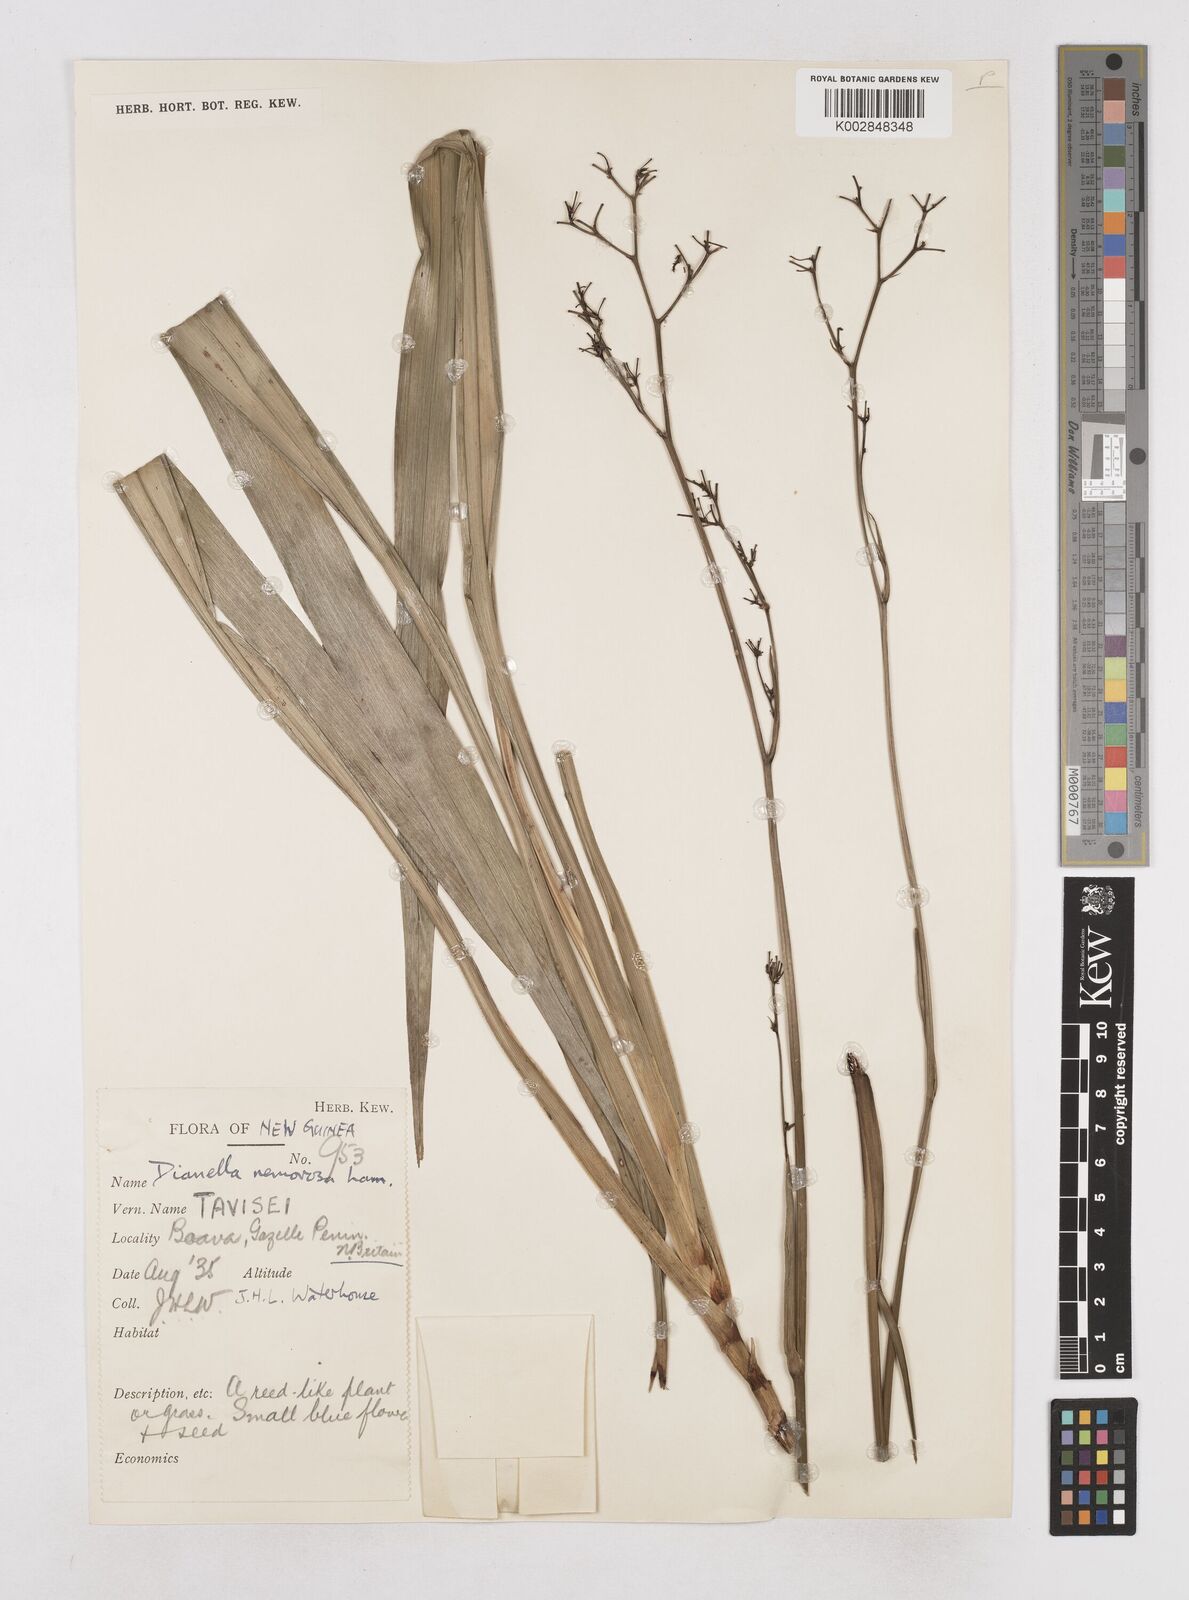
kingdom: Plantae
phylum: Tracheophyta
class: Liliopsida
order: Asparagales
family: Asphodelaceae
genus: Dianella
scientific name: Dianella ensifolia
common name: New zealand lilyplant
